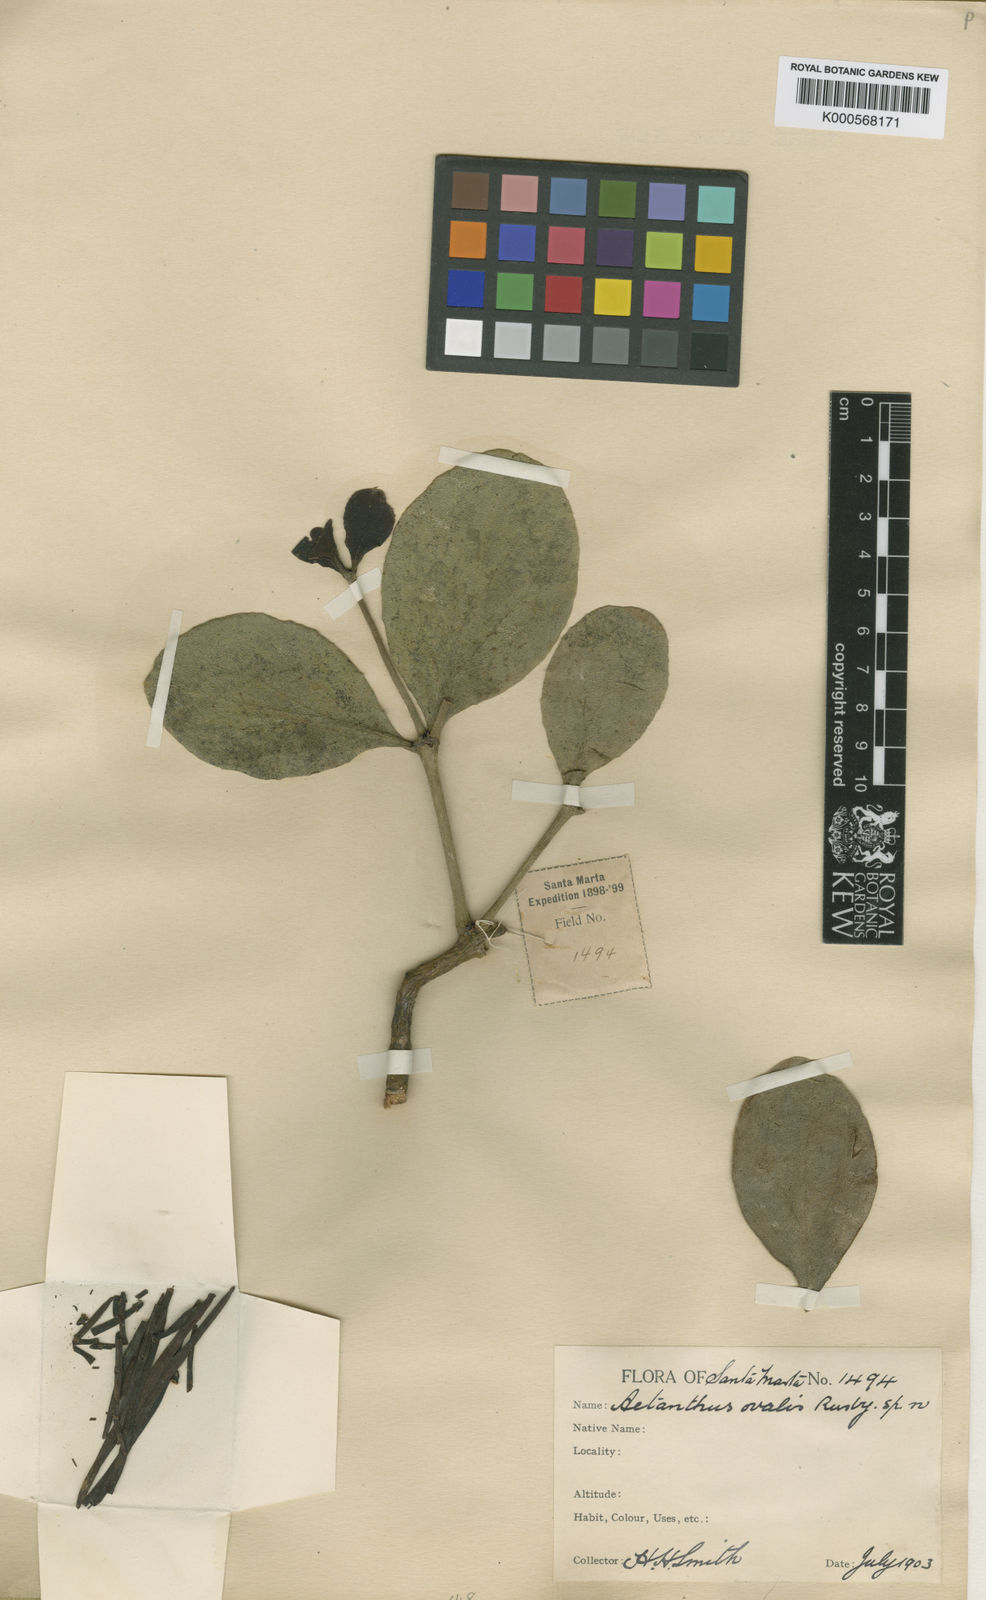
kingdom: Plantae
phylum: Tracheophyta
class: Magnoliopsida
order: Santalales
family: Loranthaceae
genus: Aetanthus
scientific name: Aetanthus ovalis
